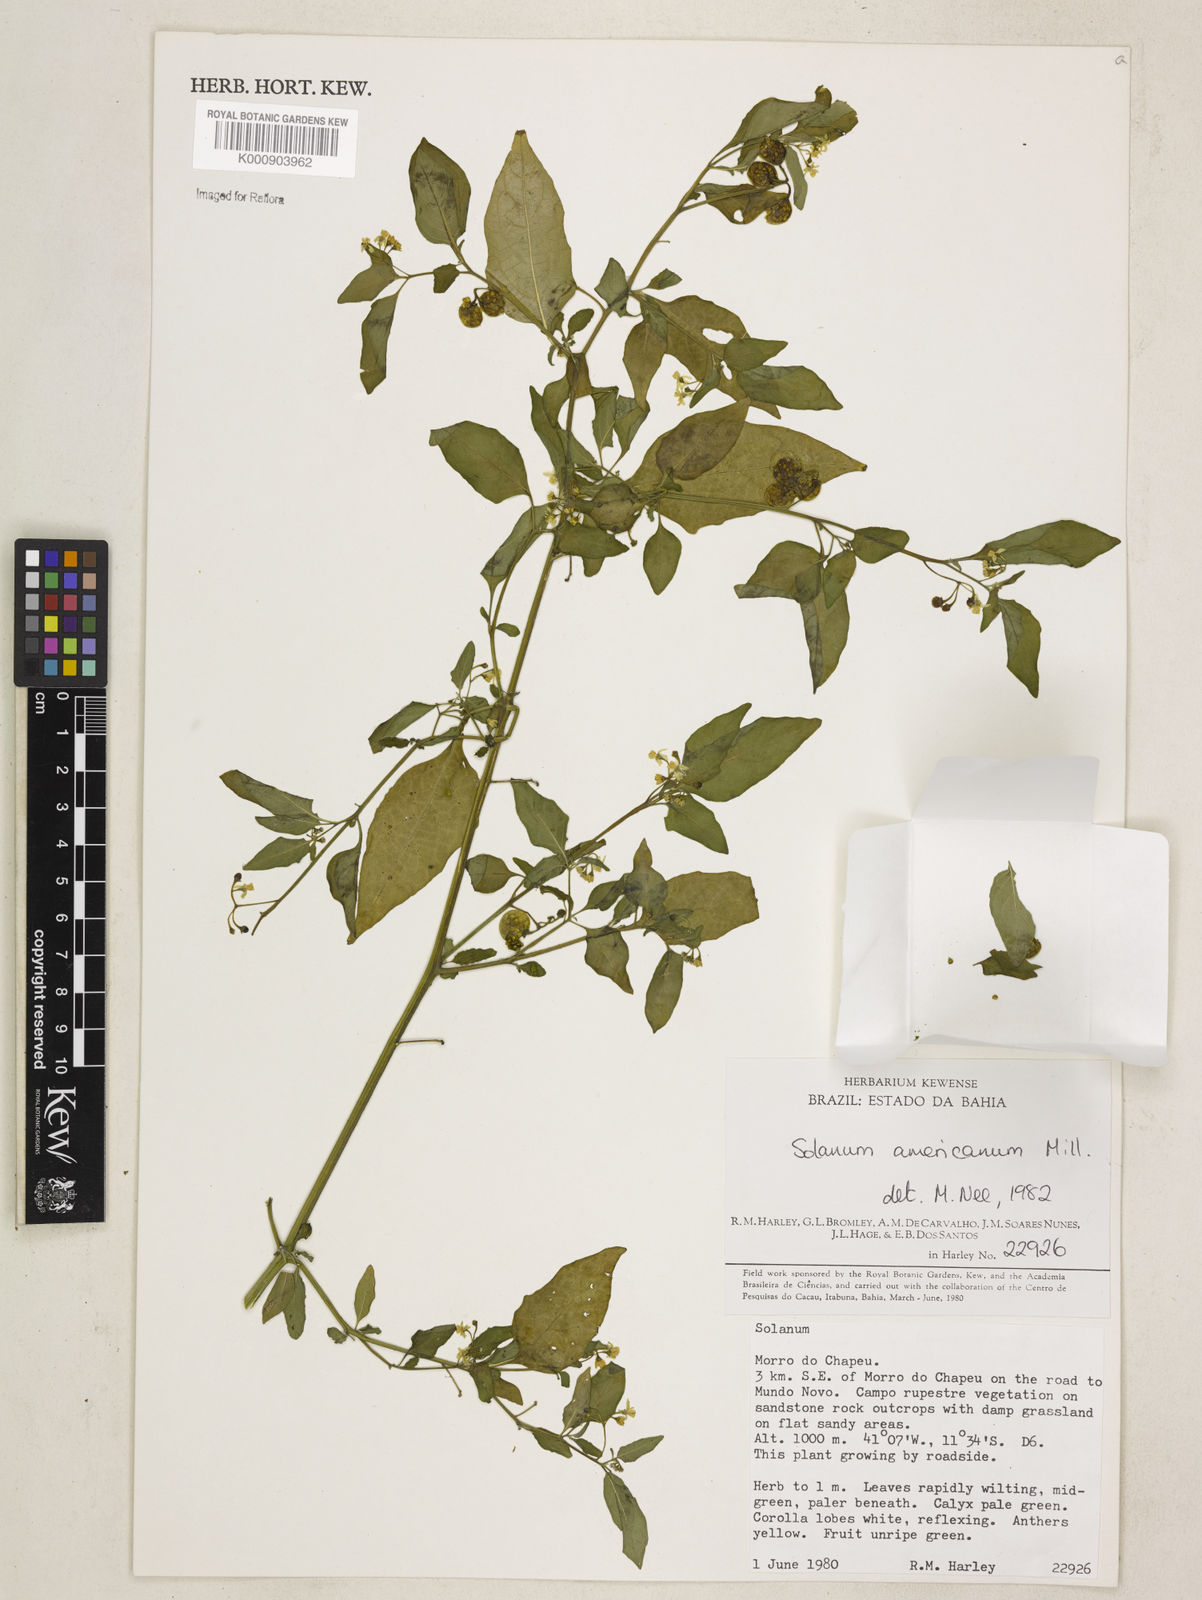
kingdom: Plantae
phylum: Tracheophyta
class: Magnoliopsida
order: Solanales
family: Solanaceae
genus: Solanum
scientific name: Solanum americanum
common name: American black nightshade
